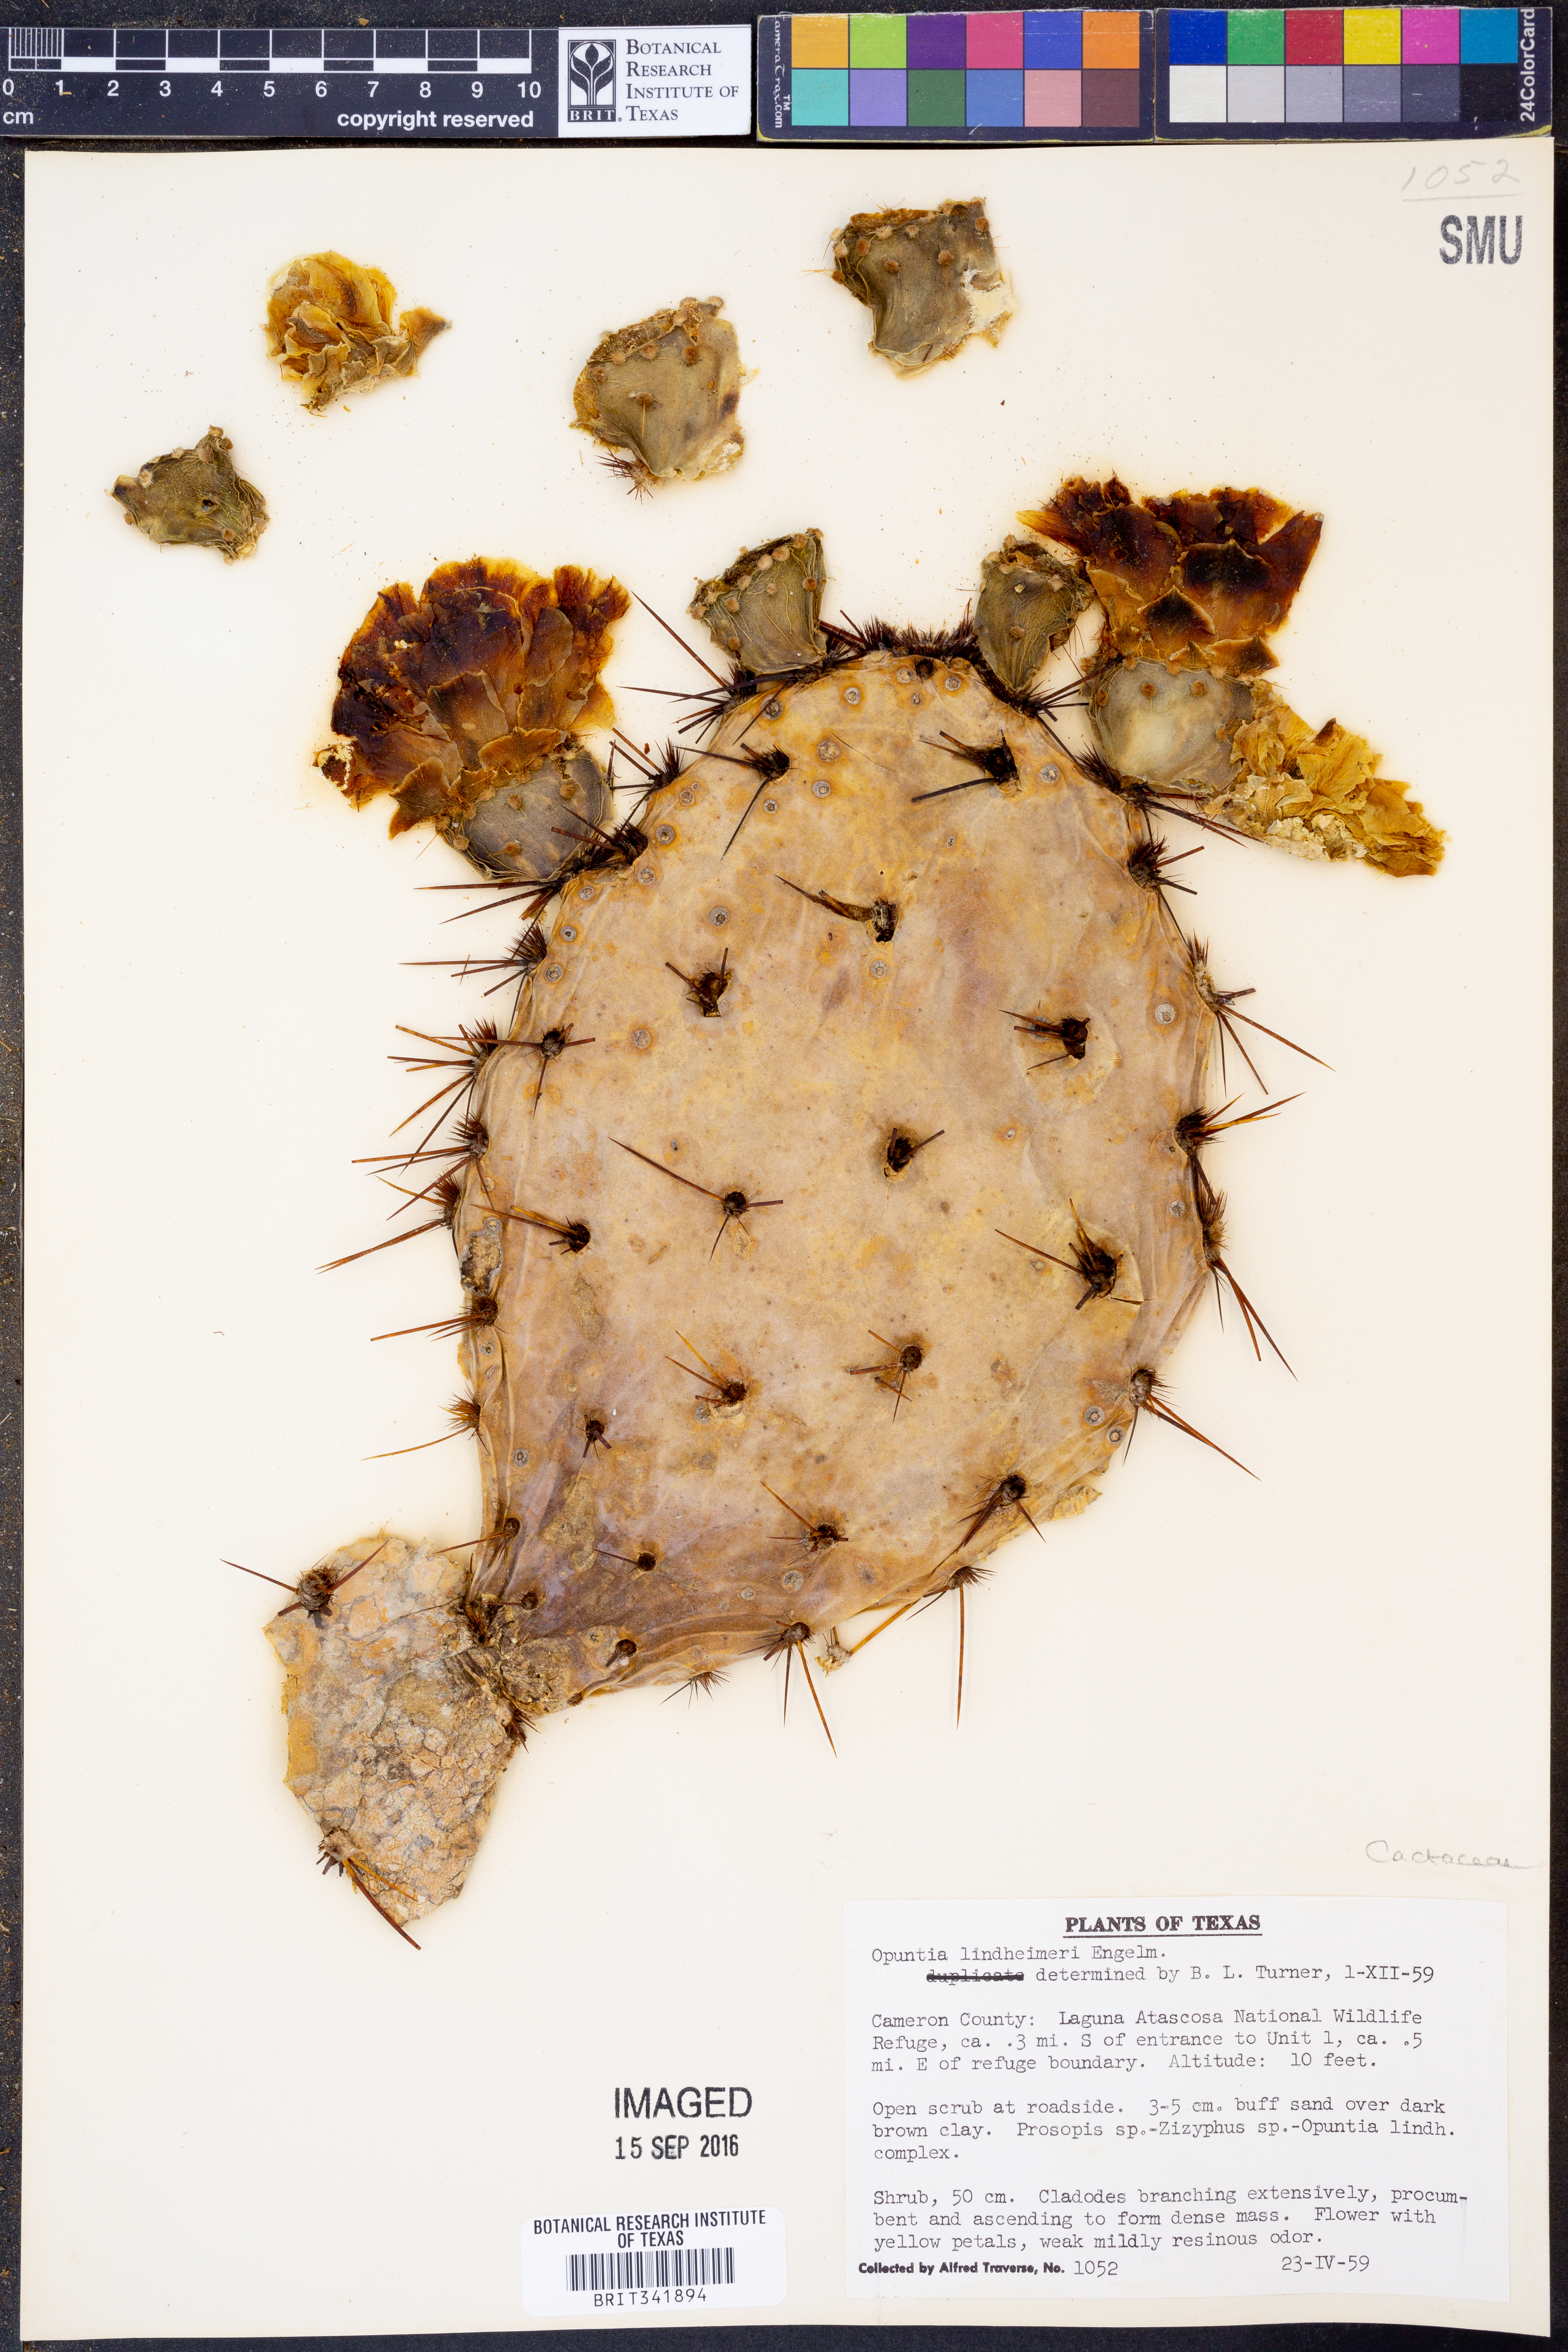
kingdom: Plantae
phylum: Tracheophyta
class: Magnoliopsida
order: Caryophyllales
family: Cactaceae
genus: Opuntia
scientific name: Opuntia engelmannii
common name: Cactus-apple
